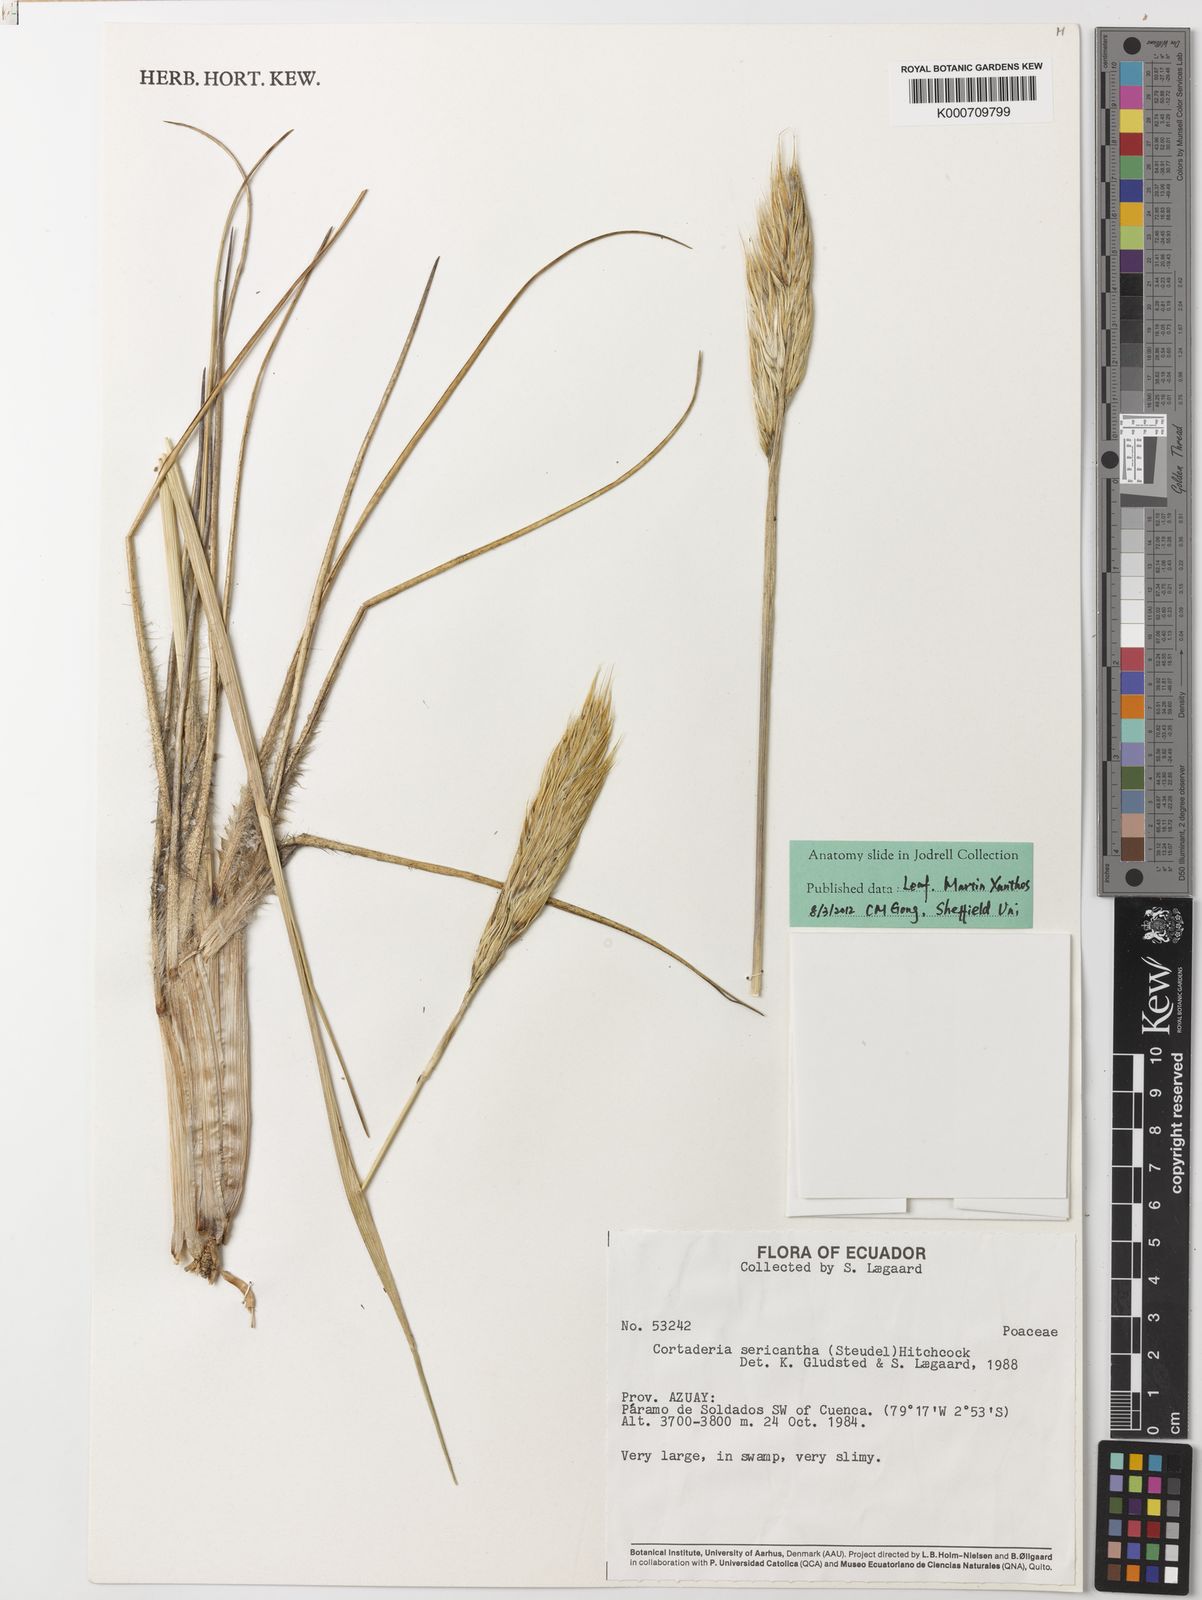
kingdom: Plantae
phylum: Tracheophyta
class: Liliopsida
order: Poales
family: Poaceae
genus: Cortaderia
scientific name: Cortaderia sericantha
